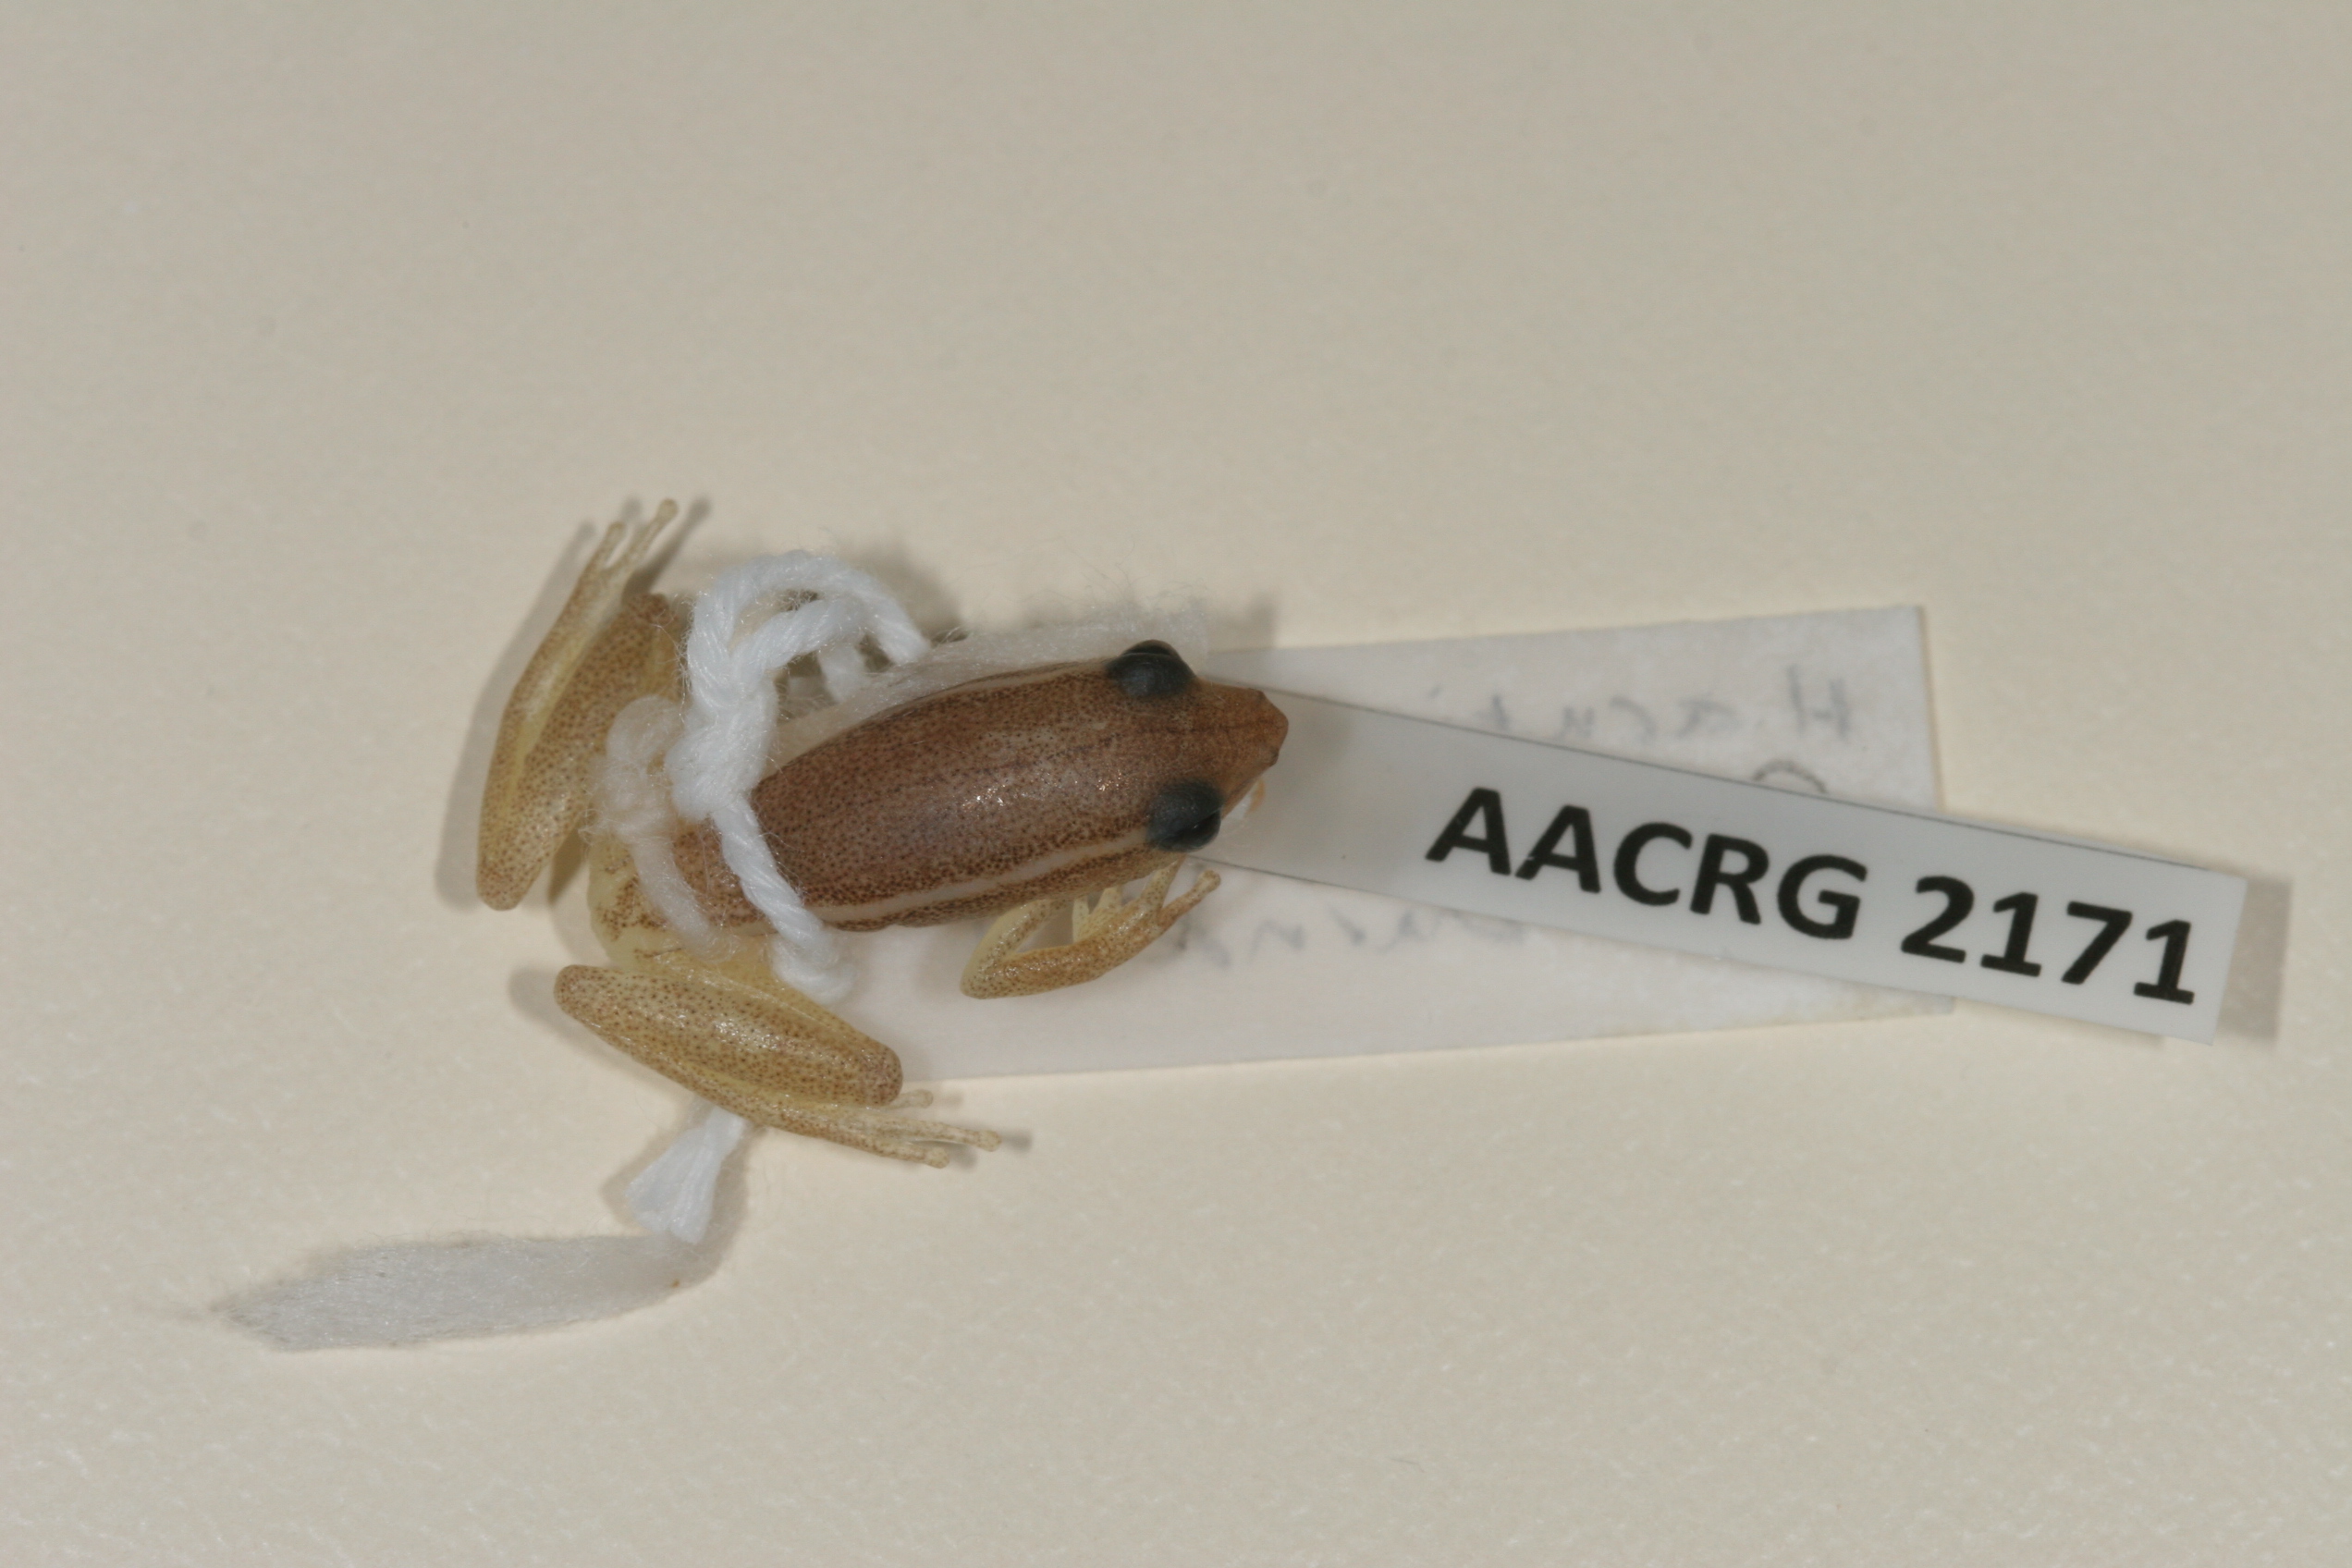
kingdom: Animalia
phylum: Chordata
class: Amphibia
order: Anura
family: Hyperoliidae
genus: Hyperolius
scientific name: Hyperolius poweri
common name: Power's reed frog
